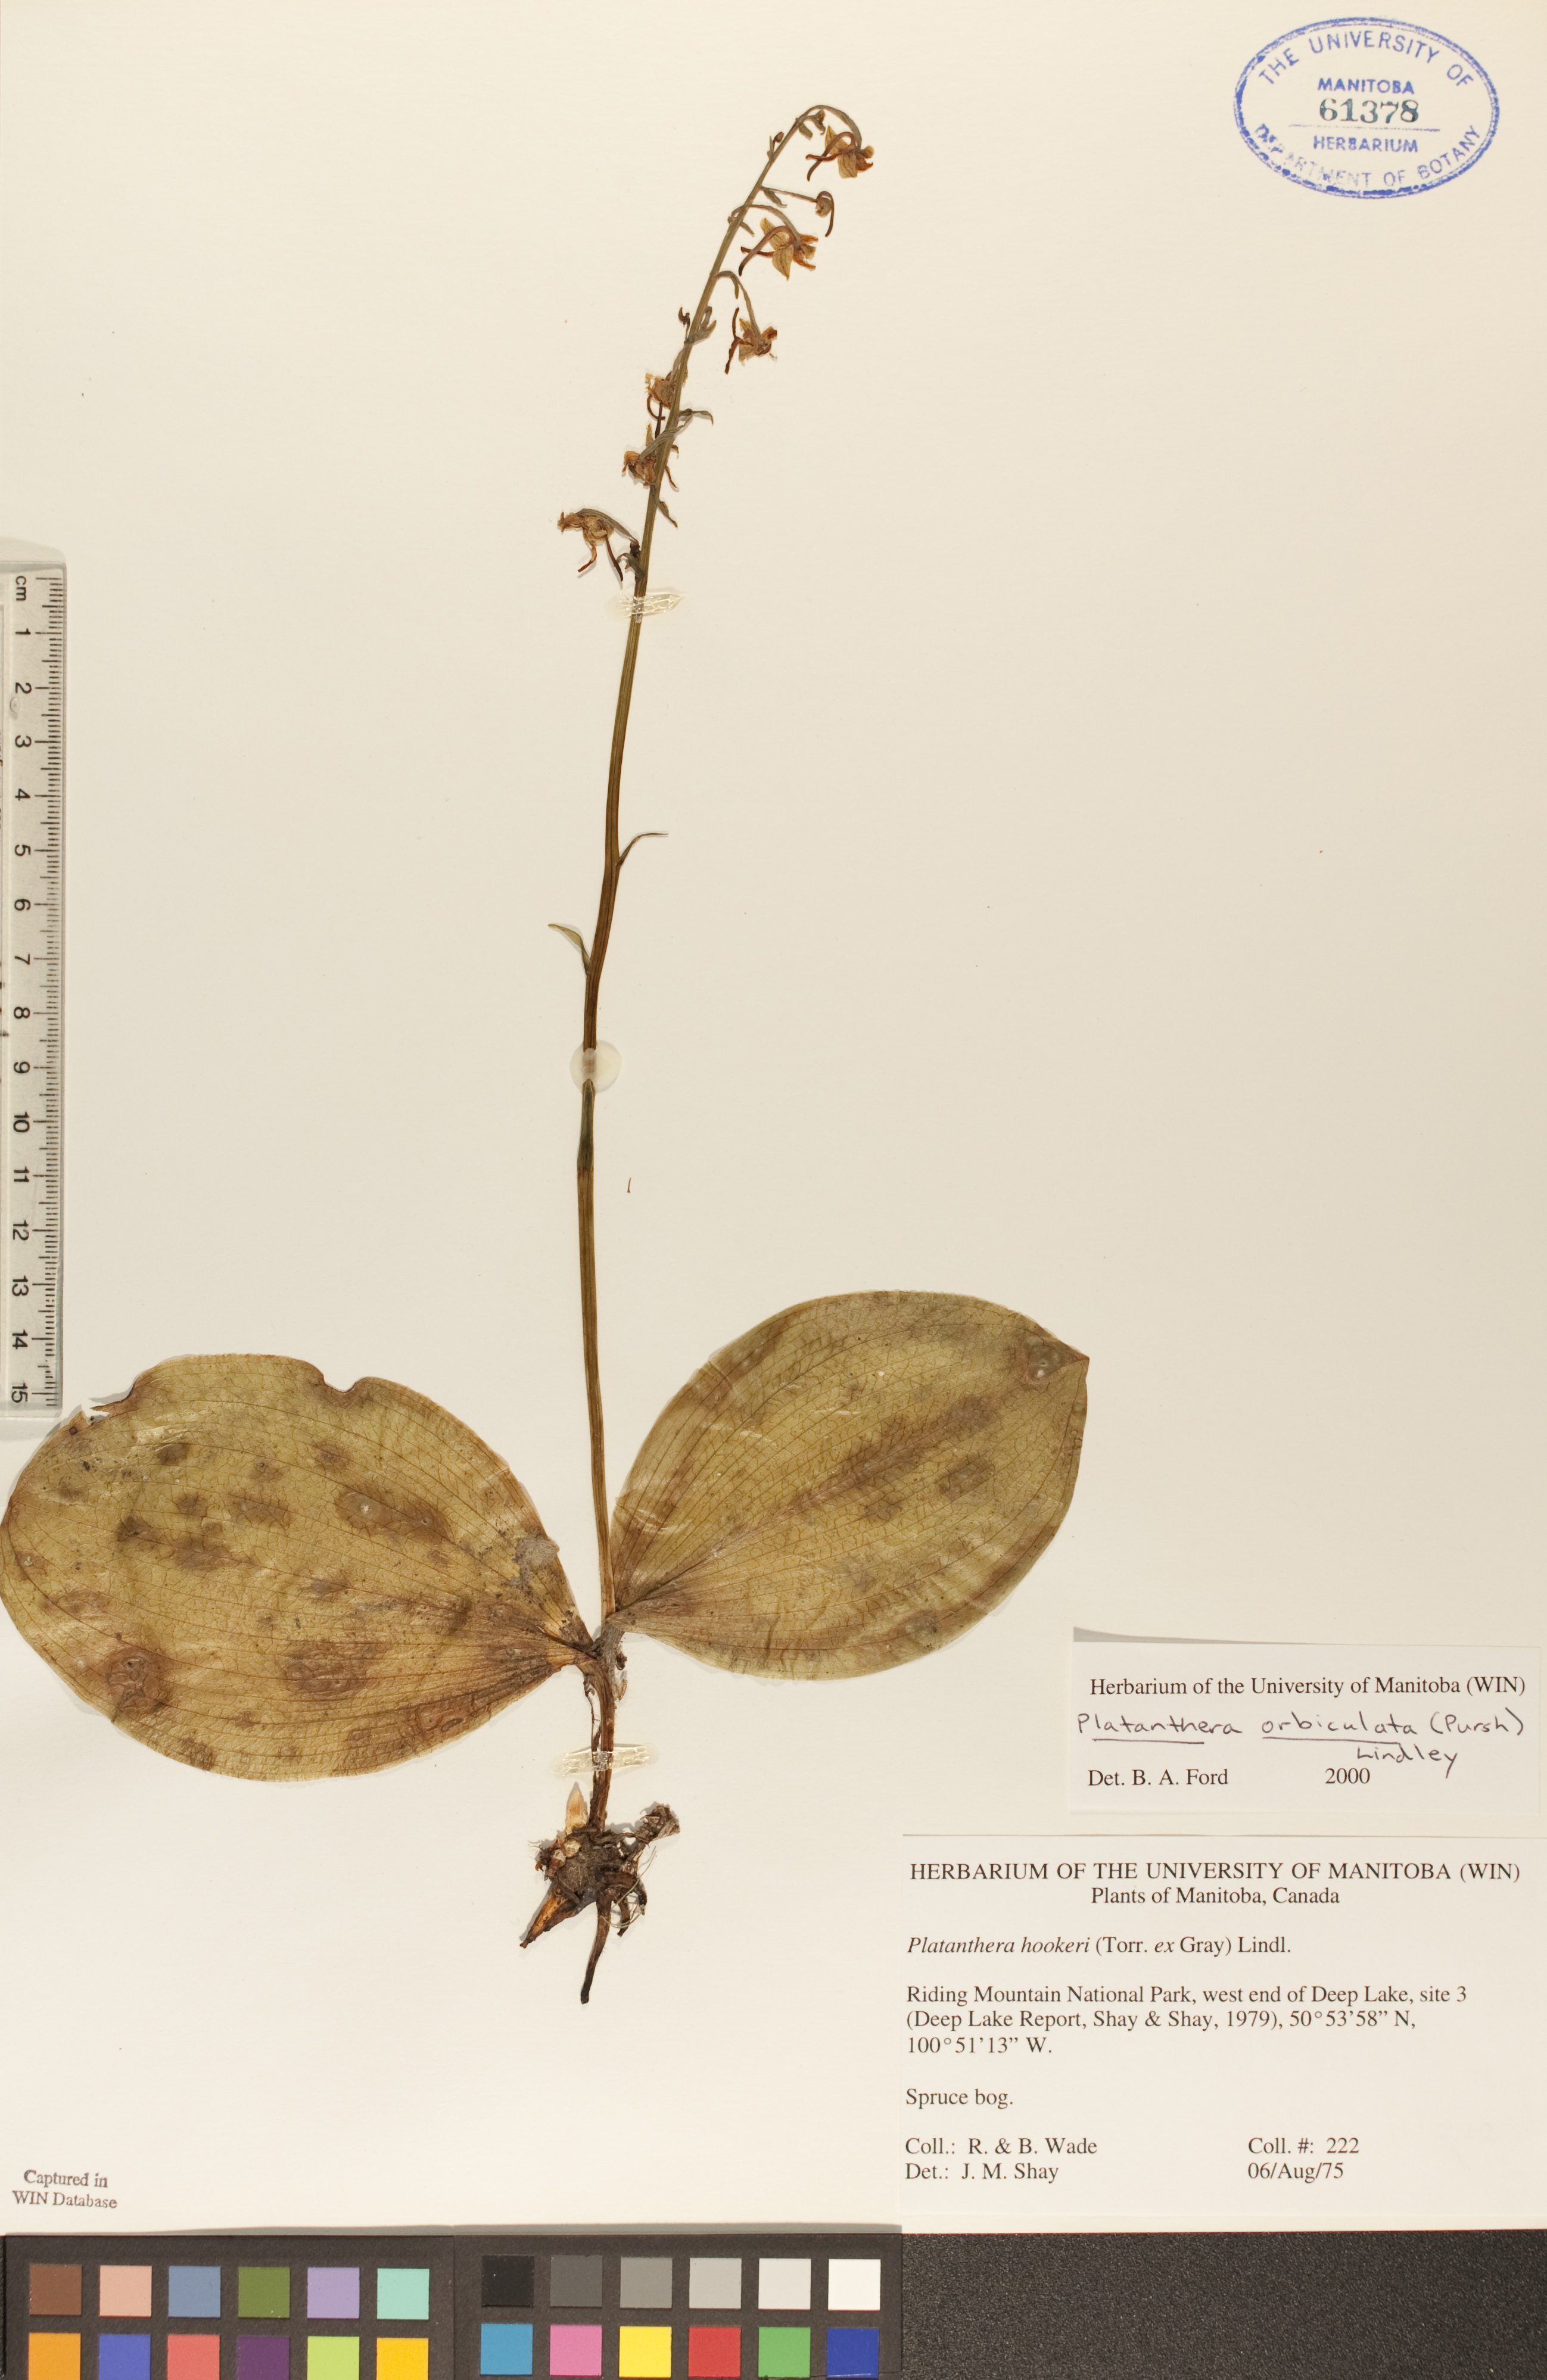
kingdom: Plantae
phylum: Tracheophyta
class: Liliopsida
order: Asparagales
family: Orchidaceae
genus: Platanthera
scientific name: Platanthera orbiculata
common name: Large round-leaved orchid
